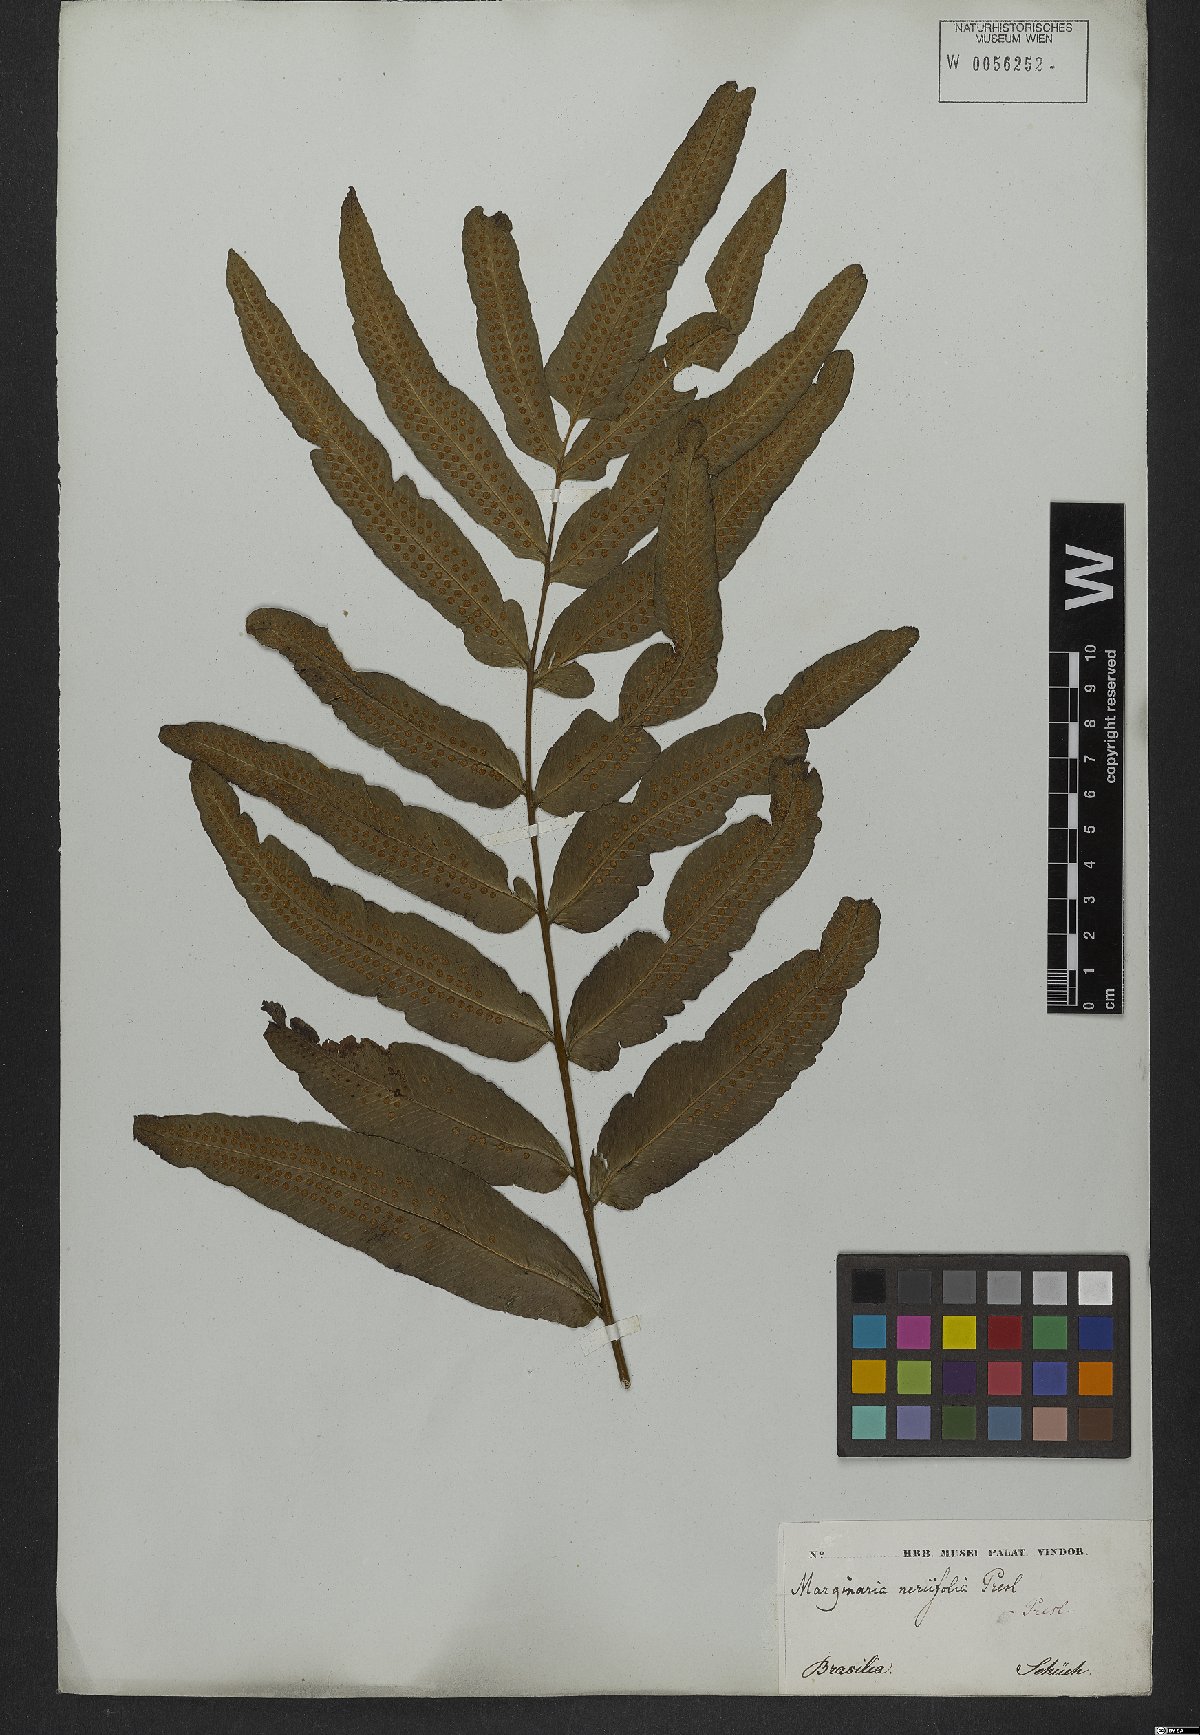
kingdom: Plantae
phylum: Tracheophyta
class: Polypodiopsida
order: Polypodiales
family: Polypodiaceae
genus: Serpocaulon
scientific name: Serpocaulon triseriale
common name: Angle-vein fern
